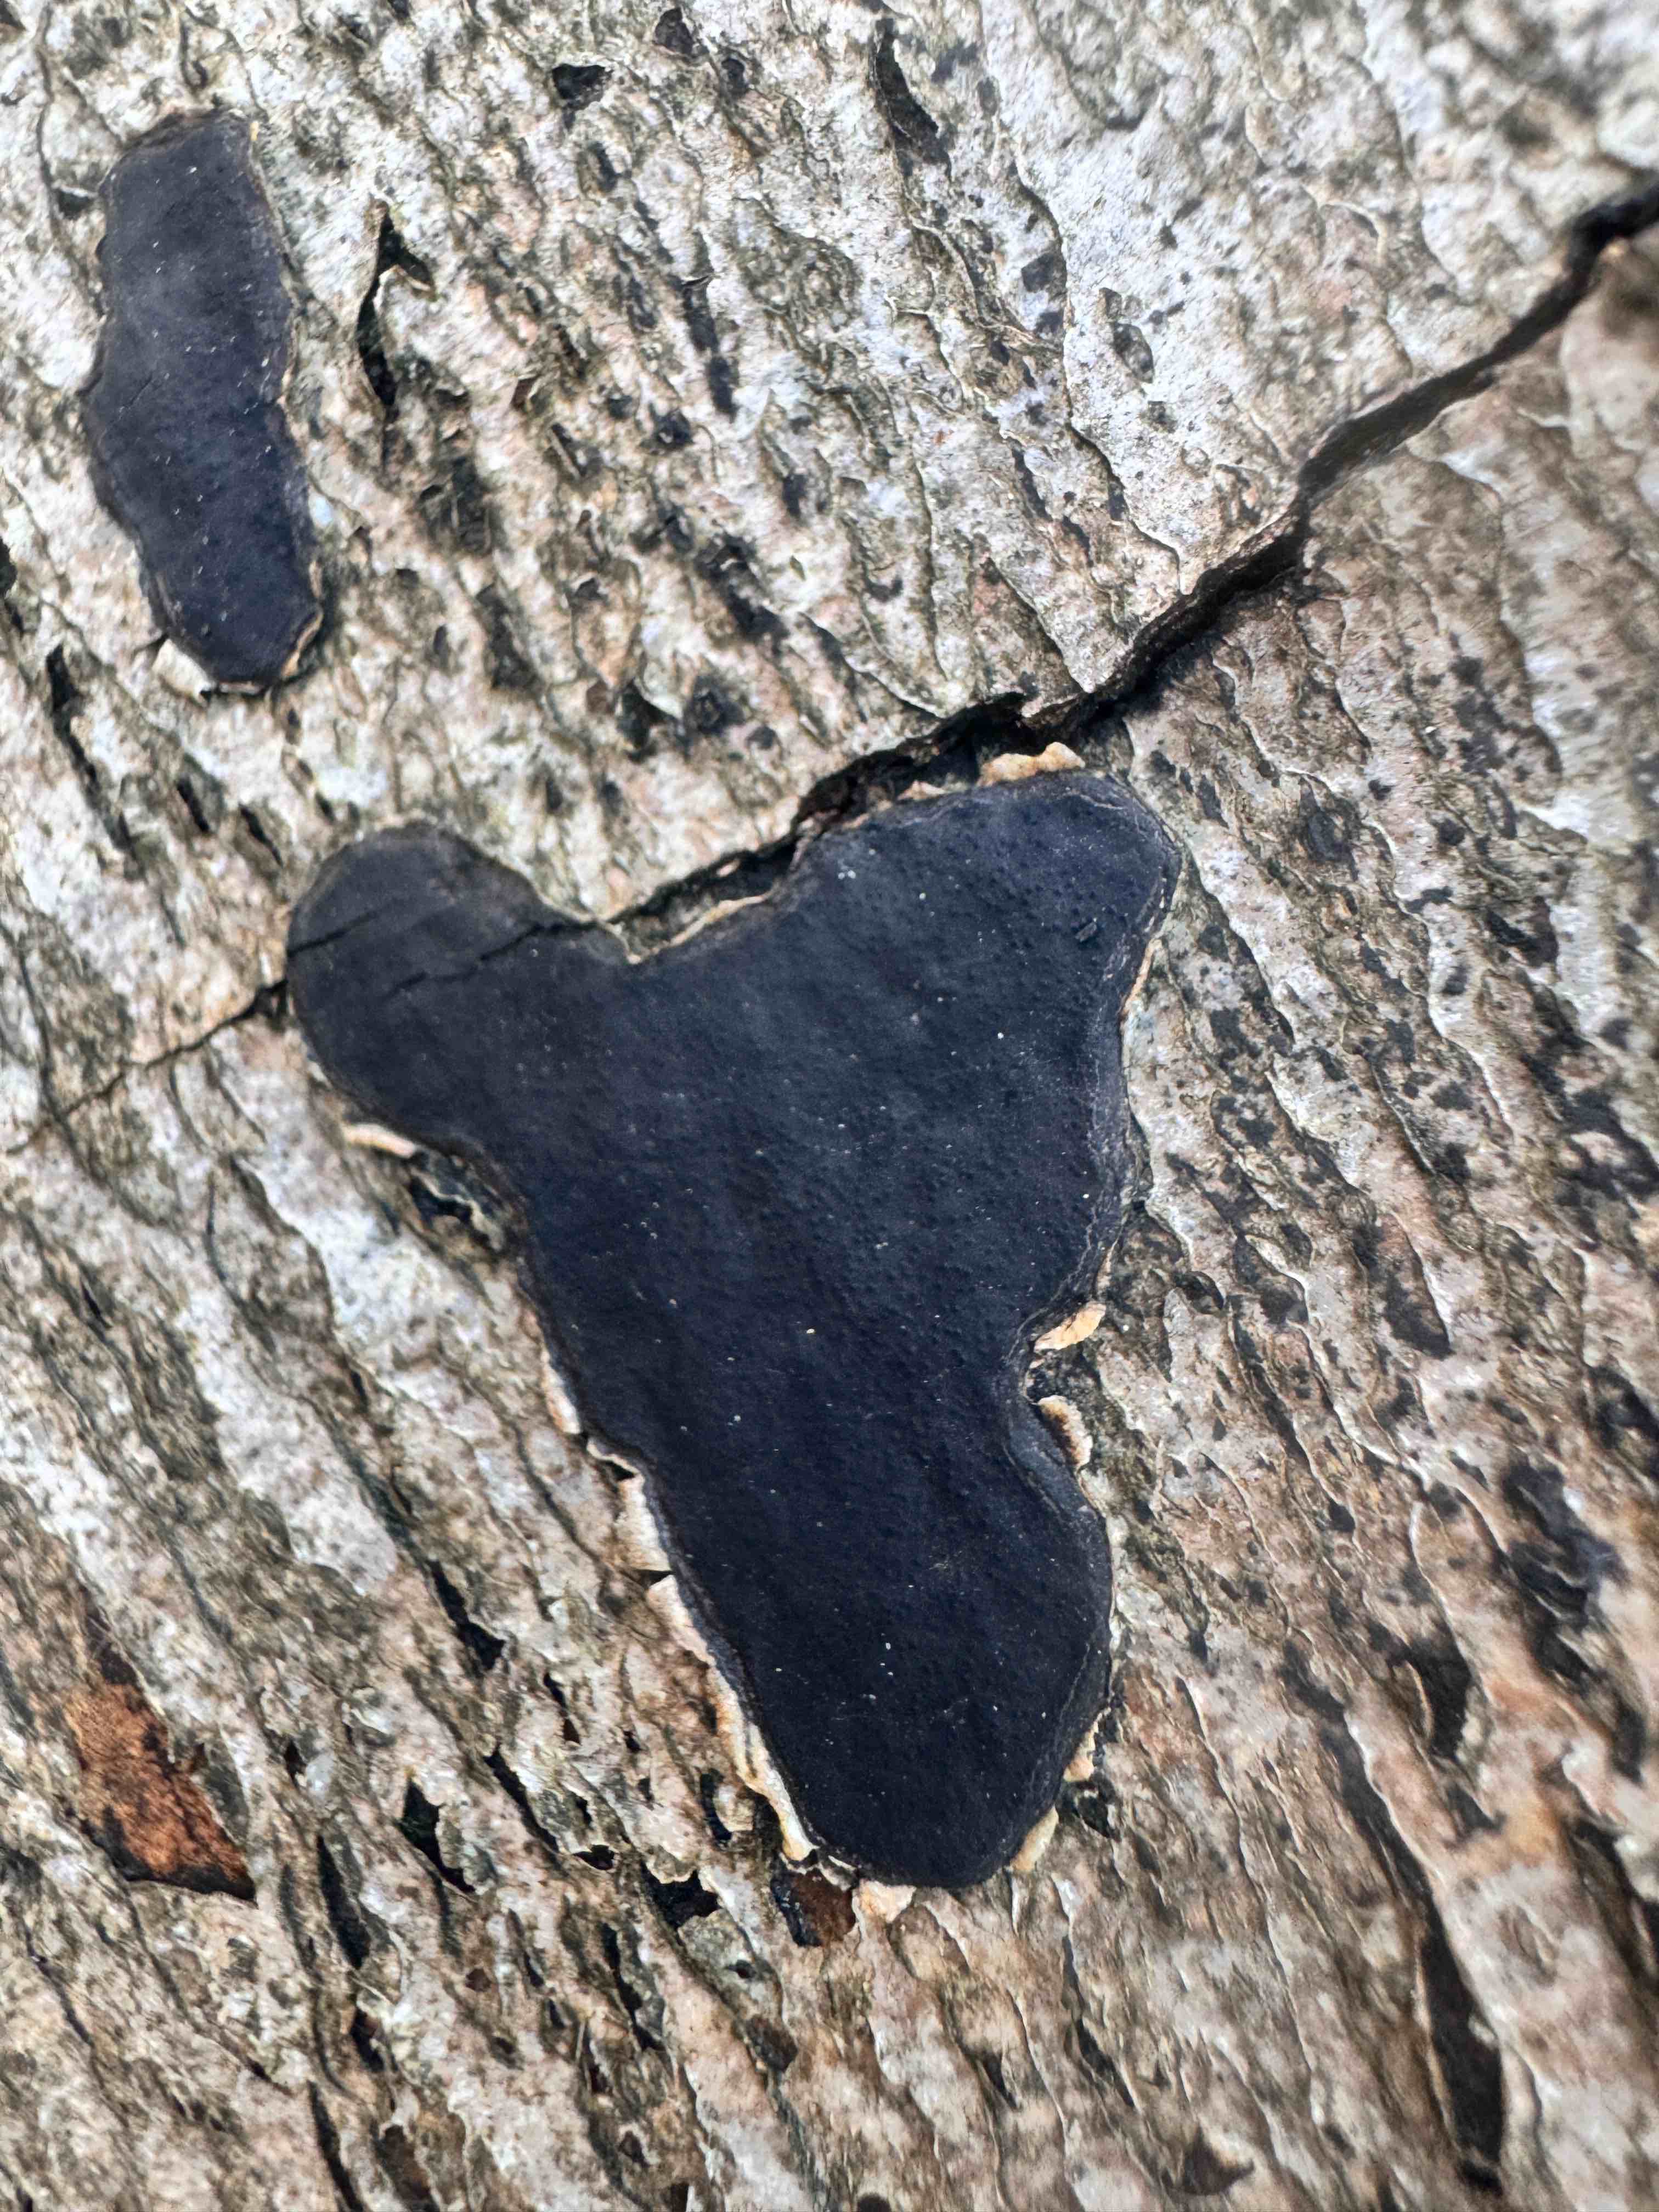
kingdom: Fungi
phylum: Ascomycota
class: Sordariomycetes
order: Xylariales
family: Graphostromataceae
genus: Biscogniauxia
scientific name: Biscogniauxia nummularia
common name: bøge-kulskive
